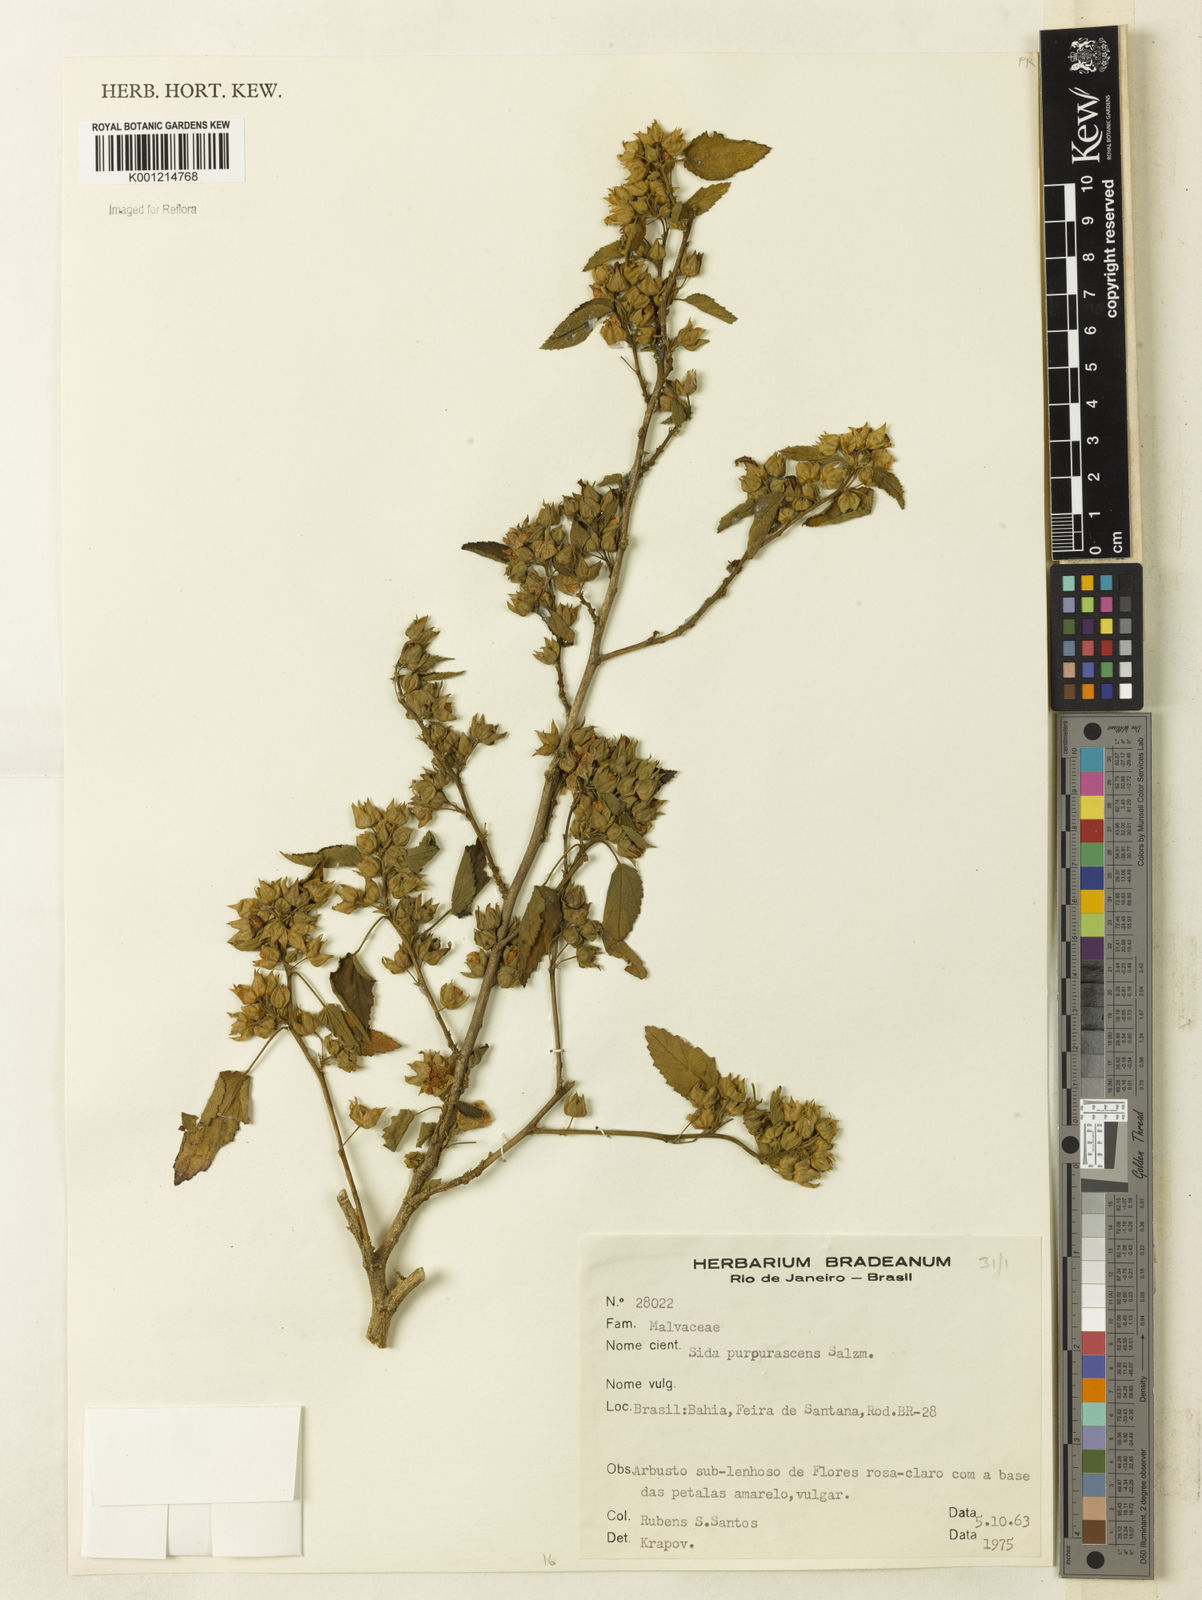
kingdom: Plantae
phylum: Tracheophyta
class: Magnoliopsida
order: Malvales
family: Malvaceae
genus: Sida
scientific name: Sida ulei
